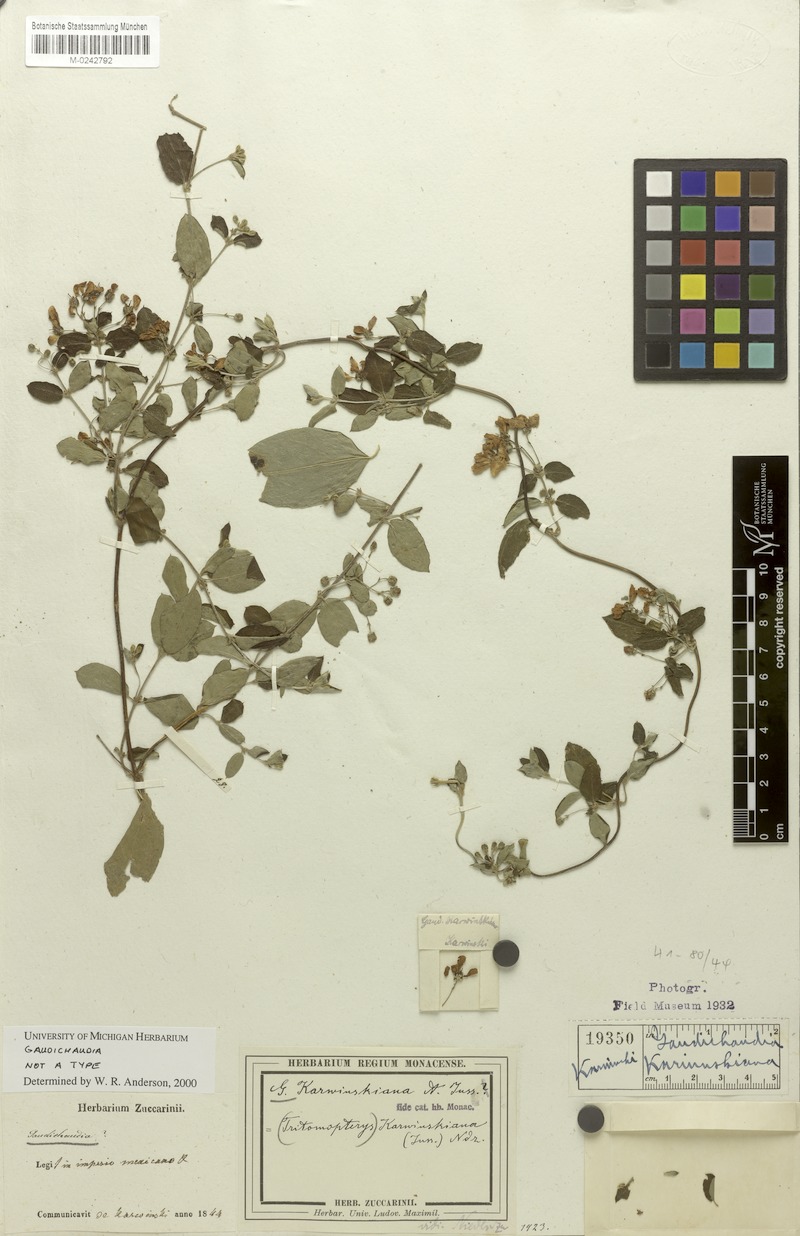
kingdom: Plantae
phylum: Tracheophyta
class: Magnoliopsida
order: Malpighiales
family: Malpighiaceae
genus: Gaudichaudia
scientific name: Gaudichaudia karwinskiana
